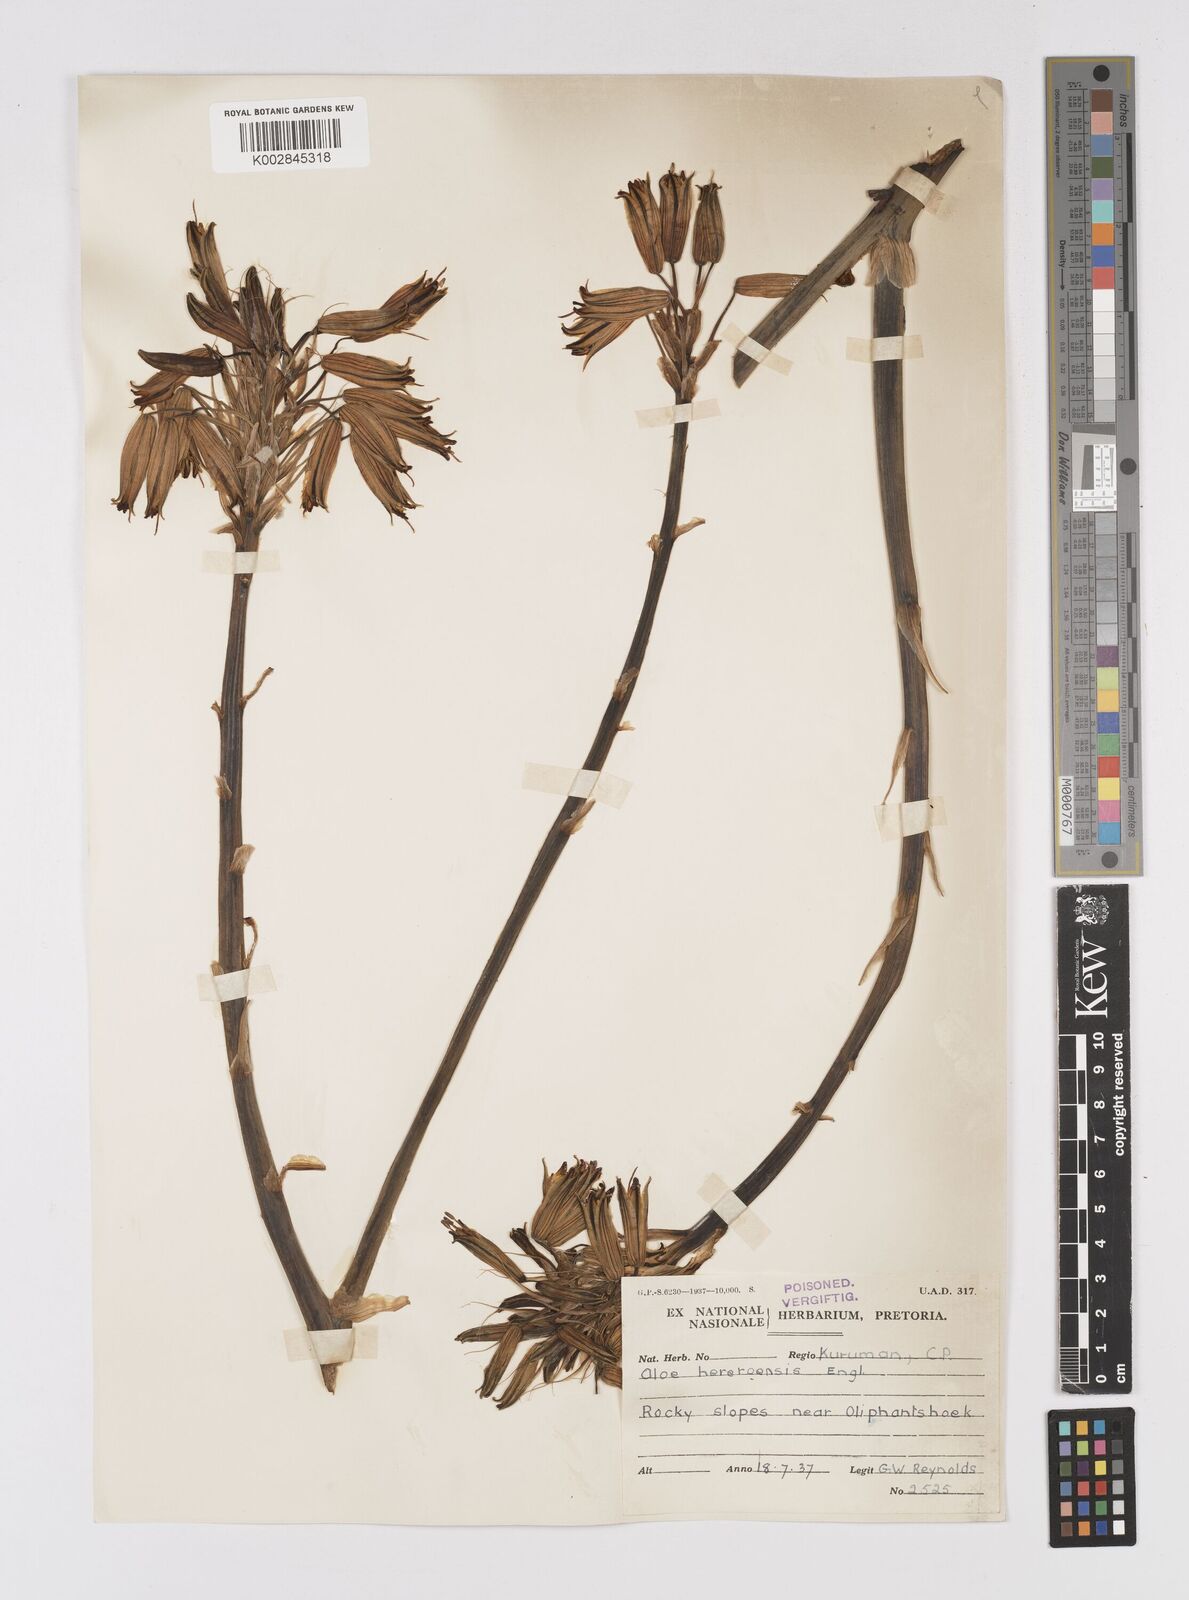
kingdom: Plantae
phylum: Tracheophyta
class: Liliopsida
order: Asparagales
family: Asphodelaceae
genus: Aloe
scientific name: Aloe hereroensis
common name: Herero aloe
